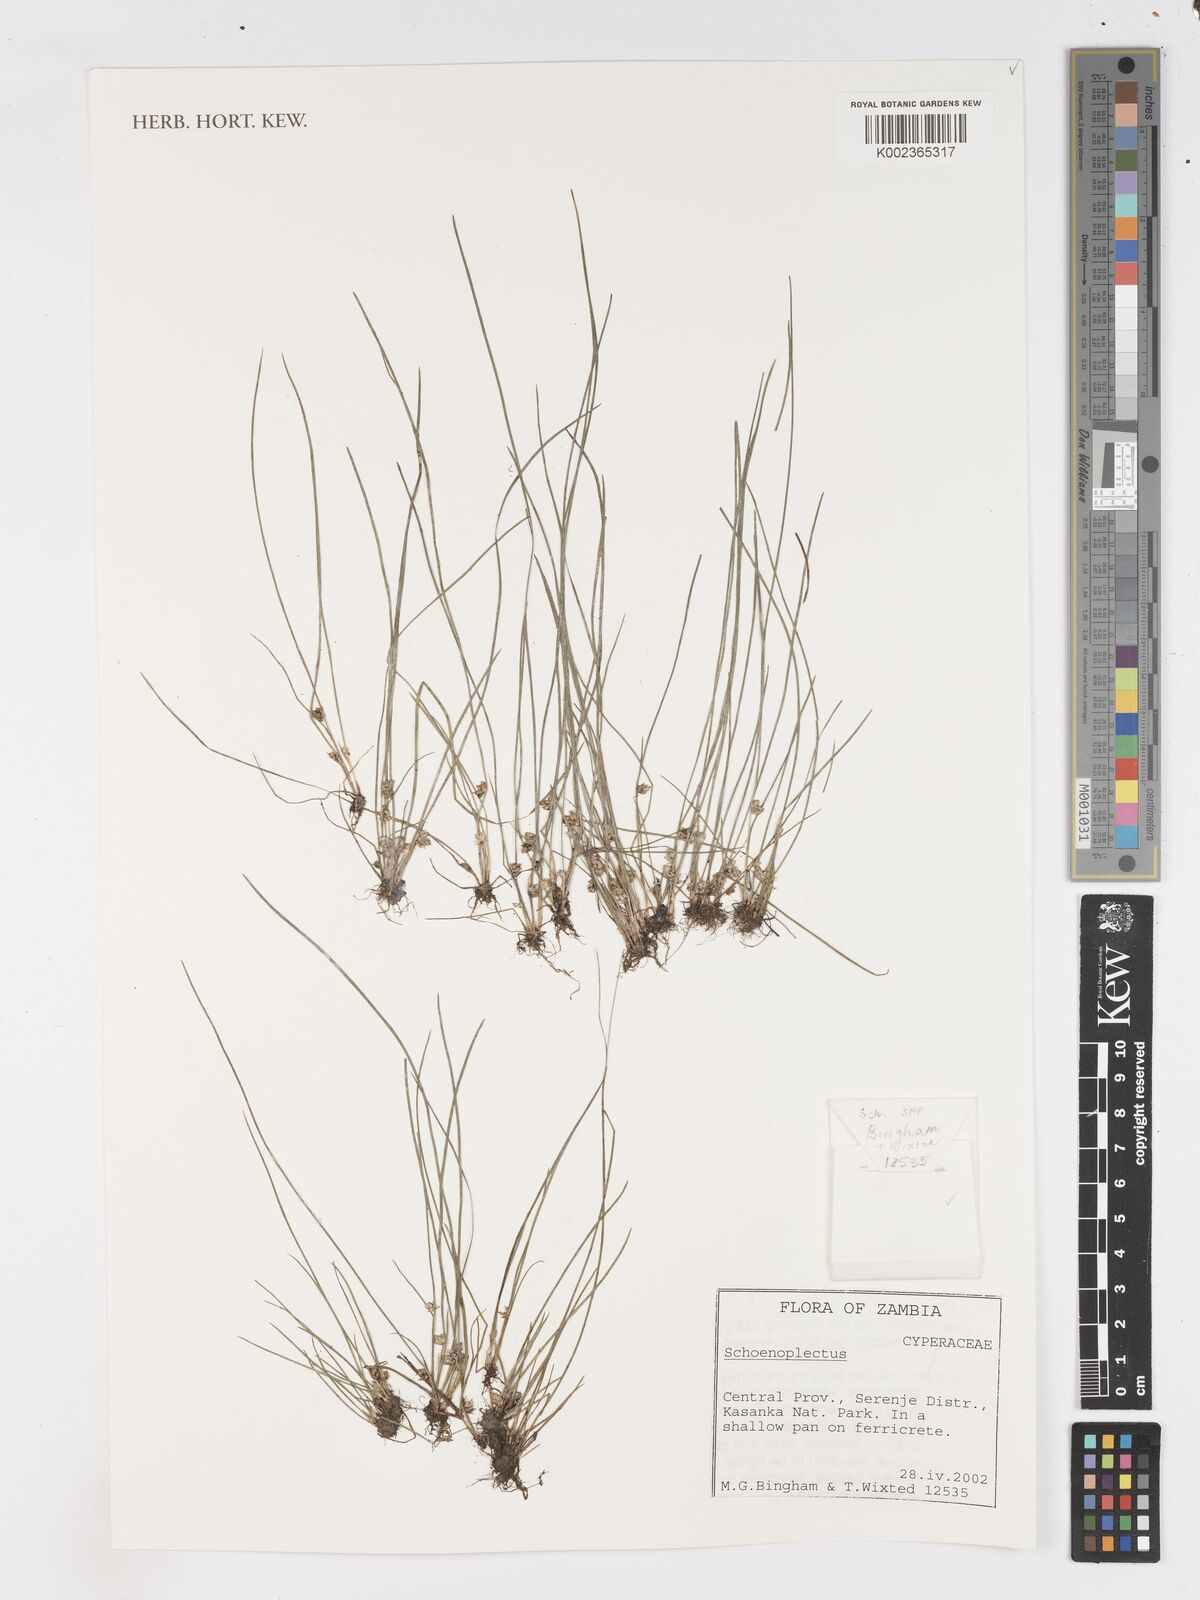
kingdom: Plantae
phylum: Tracheophyta
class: Liliopsida
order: Poales
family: Cyperaceae
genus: Schoenoplectus
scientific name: Schoenoplectus
